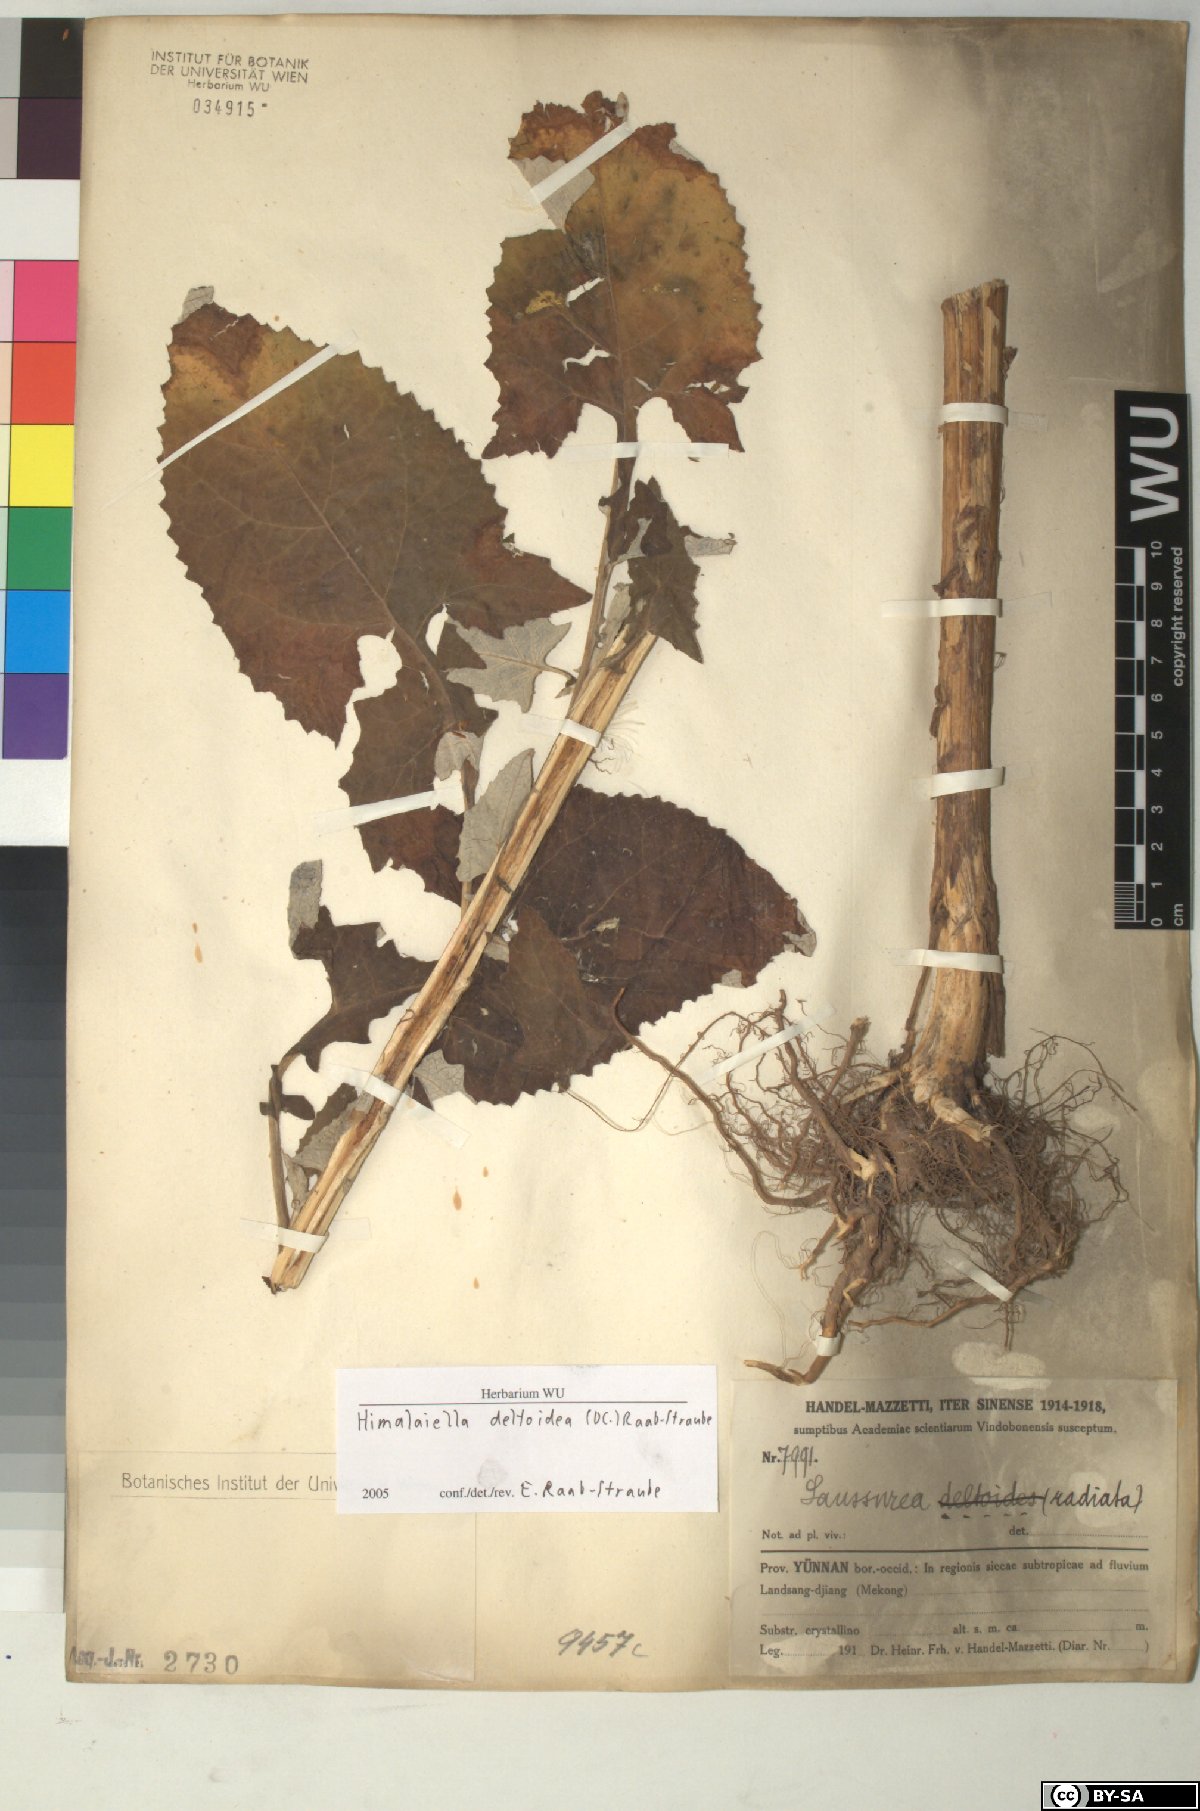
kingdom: Plantae
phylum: Tracheophyta
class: Magnoliopsida
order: Asterales
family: Asteraceae
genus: Jurinea
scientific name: Jurinea deltoidea
